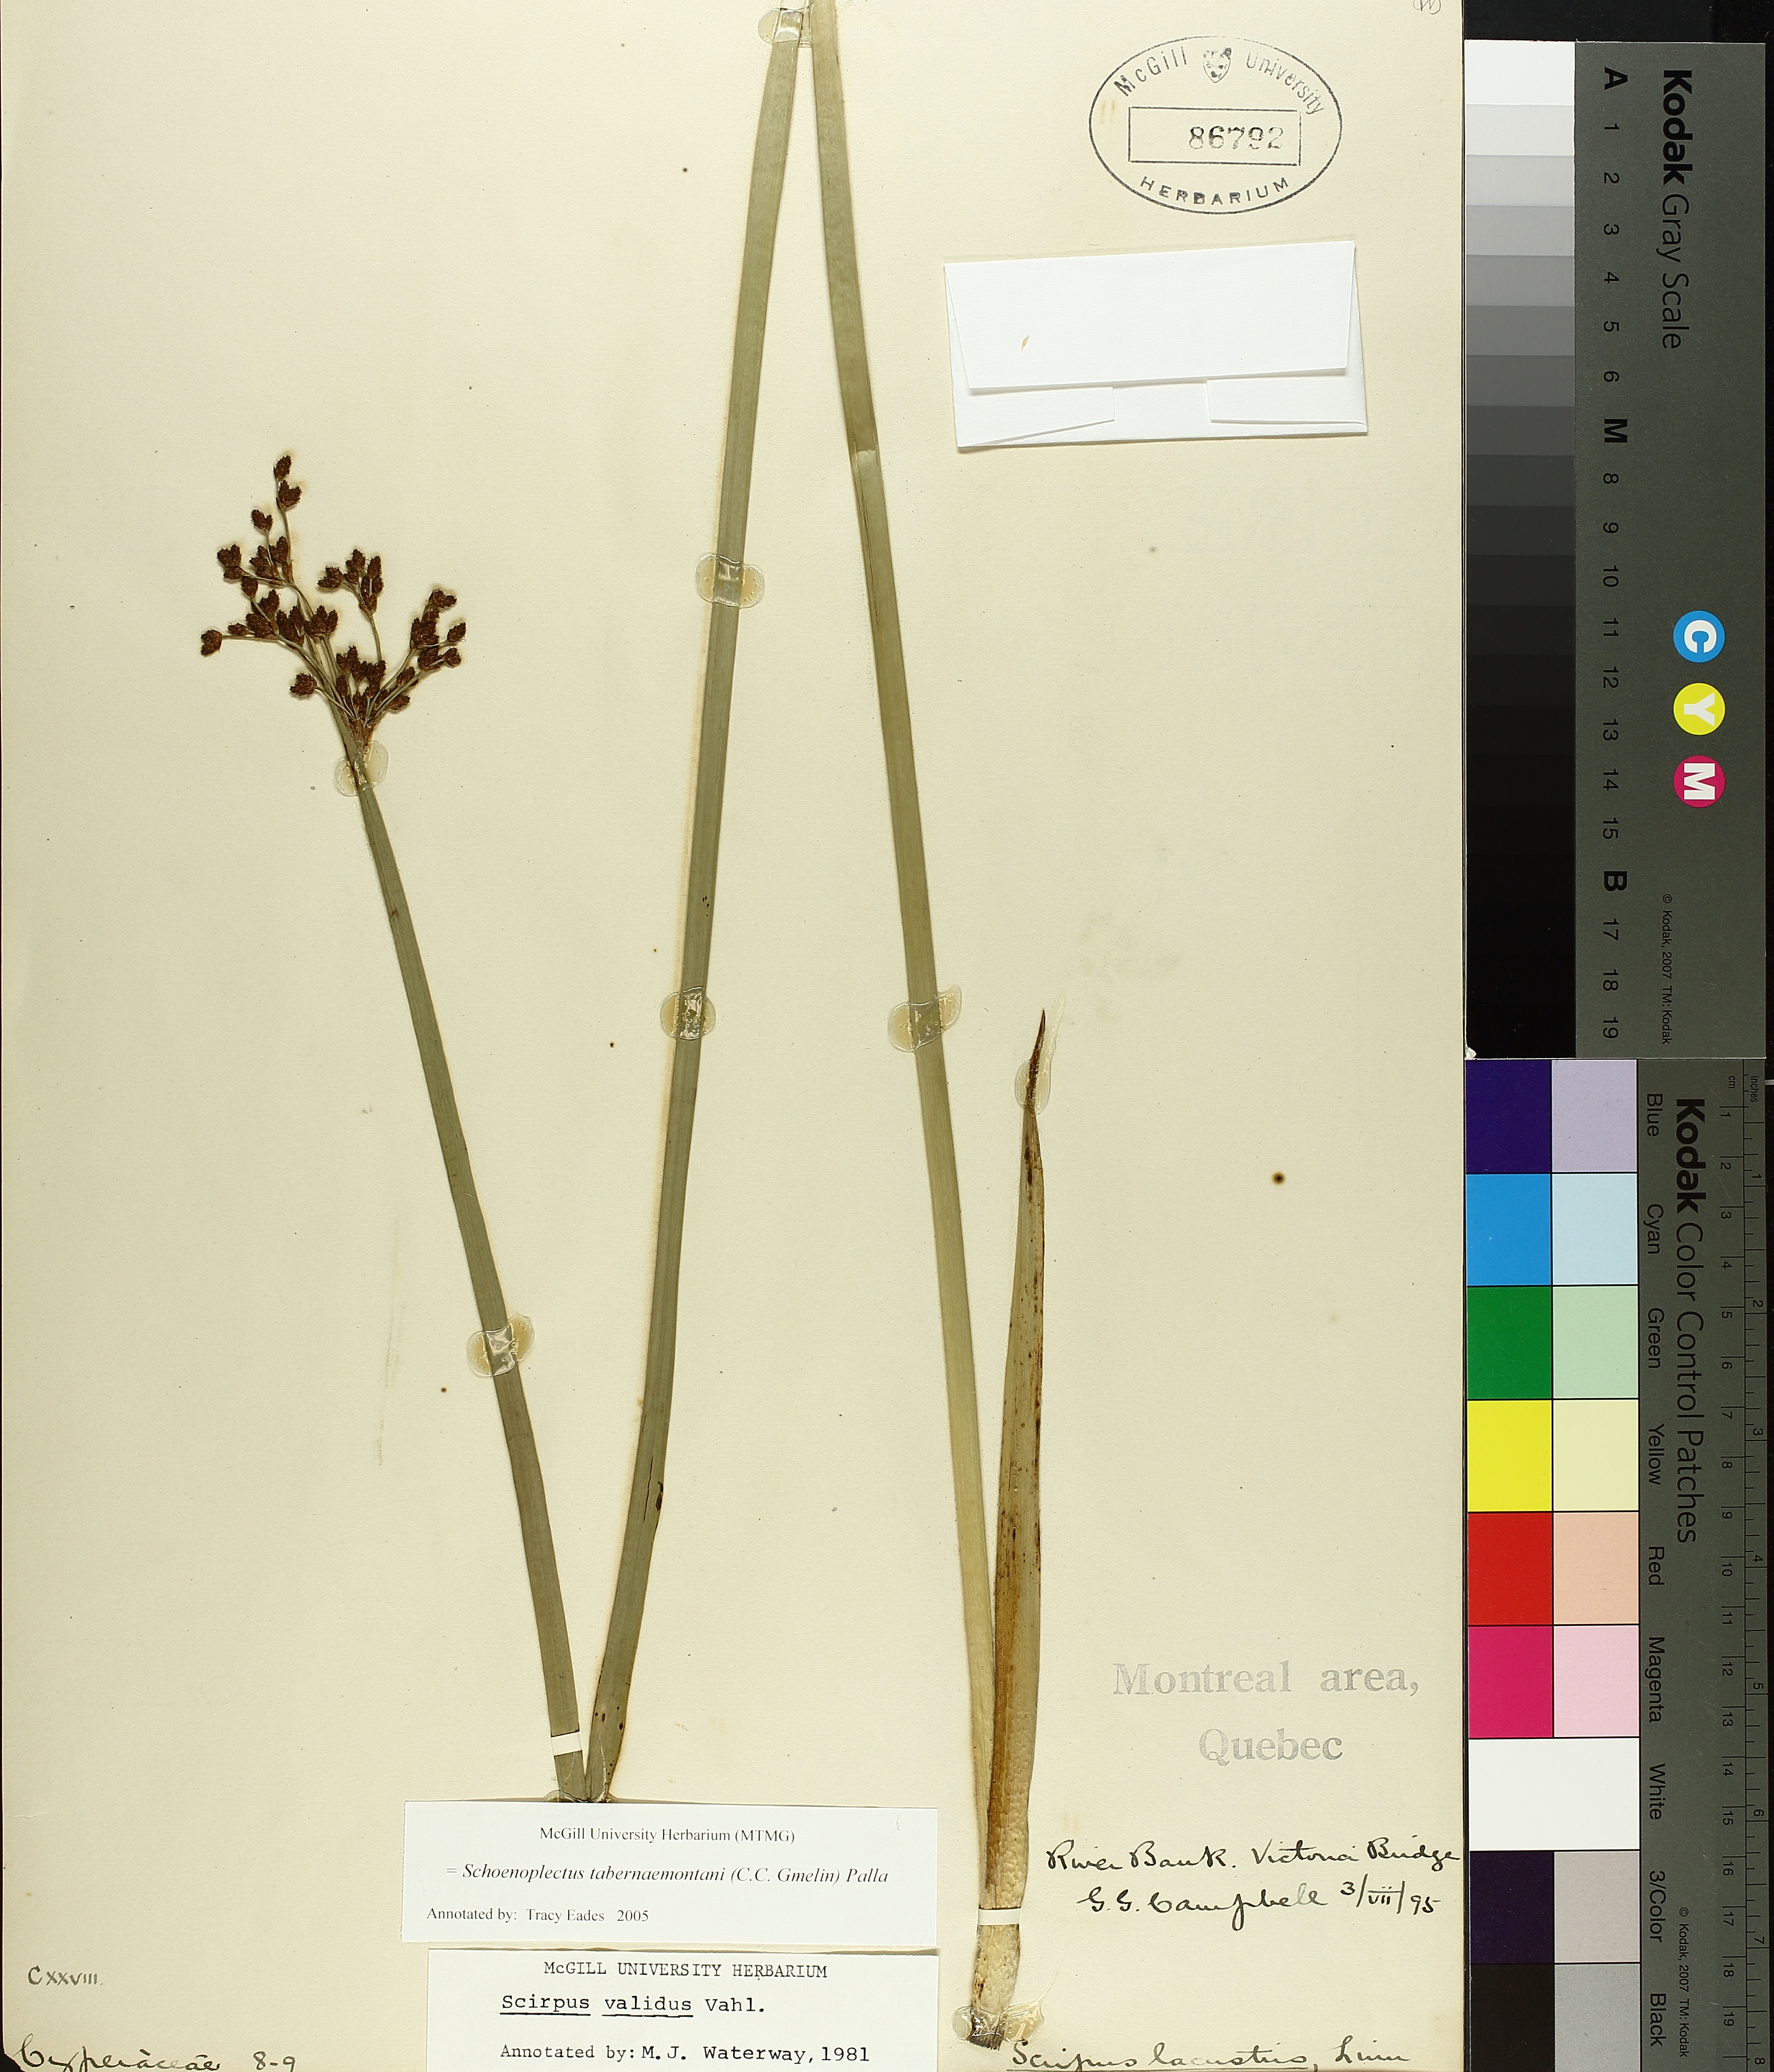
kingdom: Plantae
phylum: Tracheophyta
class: Liliopsida
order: Poales
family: Cyperaceae
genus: Schoenoplectus
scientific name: Schoenoplectus tabernaemontani
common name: Grey club-rush
